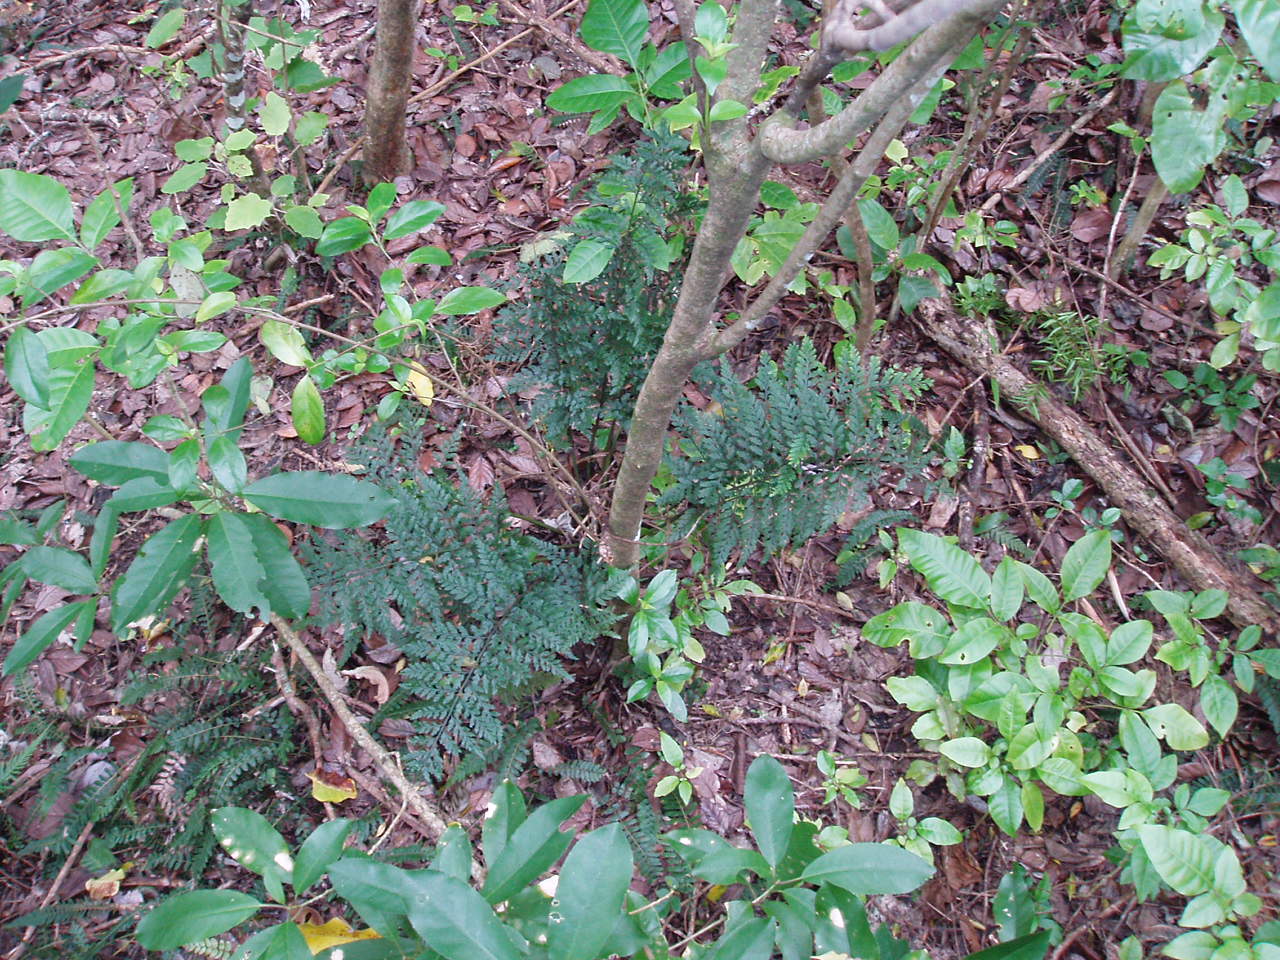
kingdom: Plantae
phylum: Tracheophyta
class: Polypodiopsida
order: Polypodiales
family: Aspleniaceae
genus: Asplenium
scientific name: Asplenium bulbiferum
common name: Mother fern
